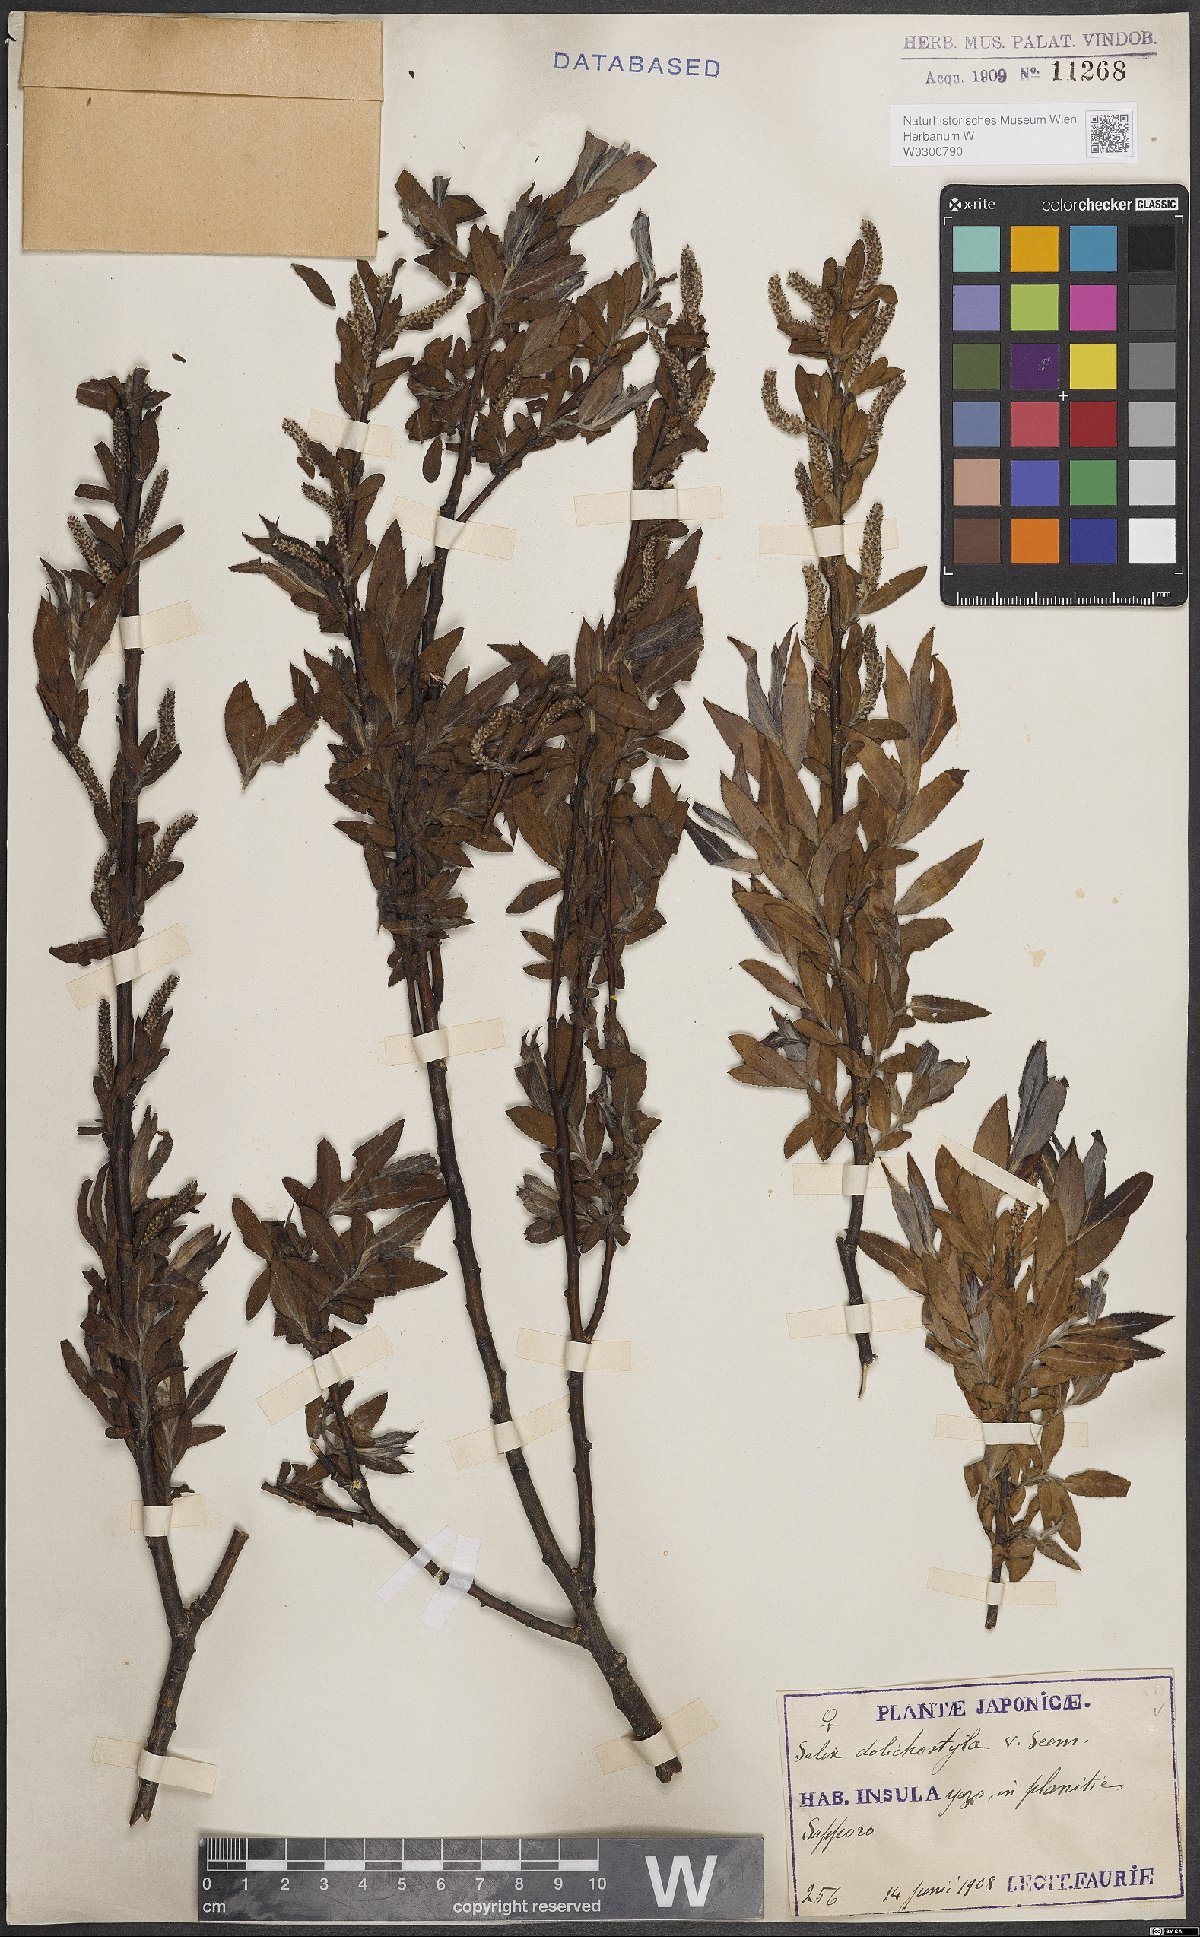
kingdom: Plantae
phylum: Tracheophyta
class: Magnoliopsida
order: Malpighiales
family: Salicaceae
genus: Salix
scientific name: Salix pierotii
